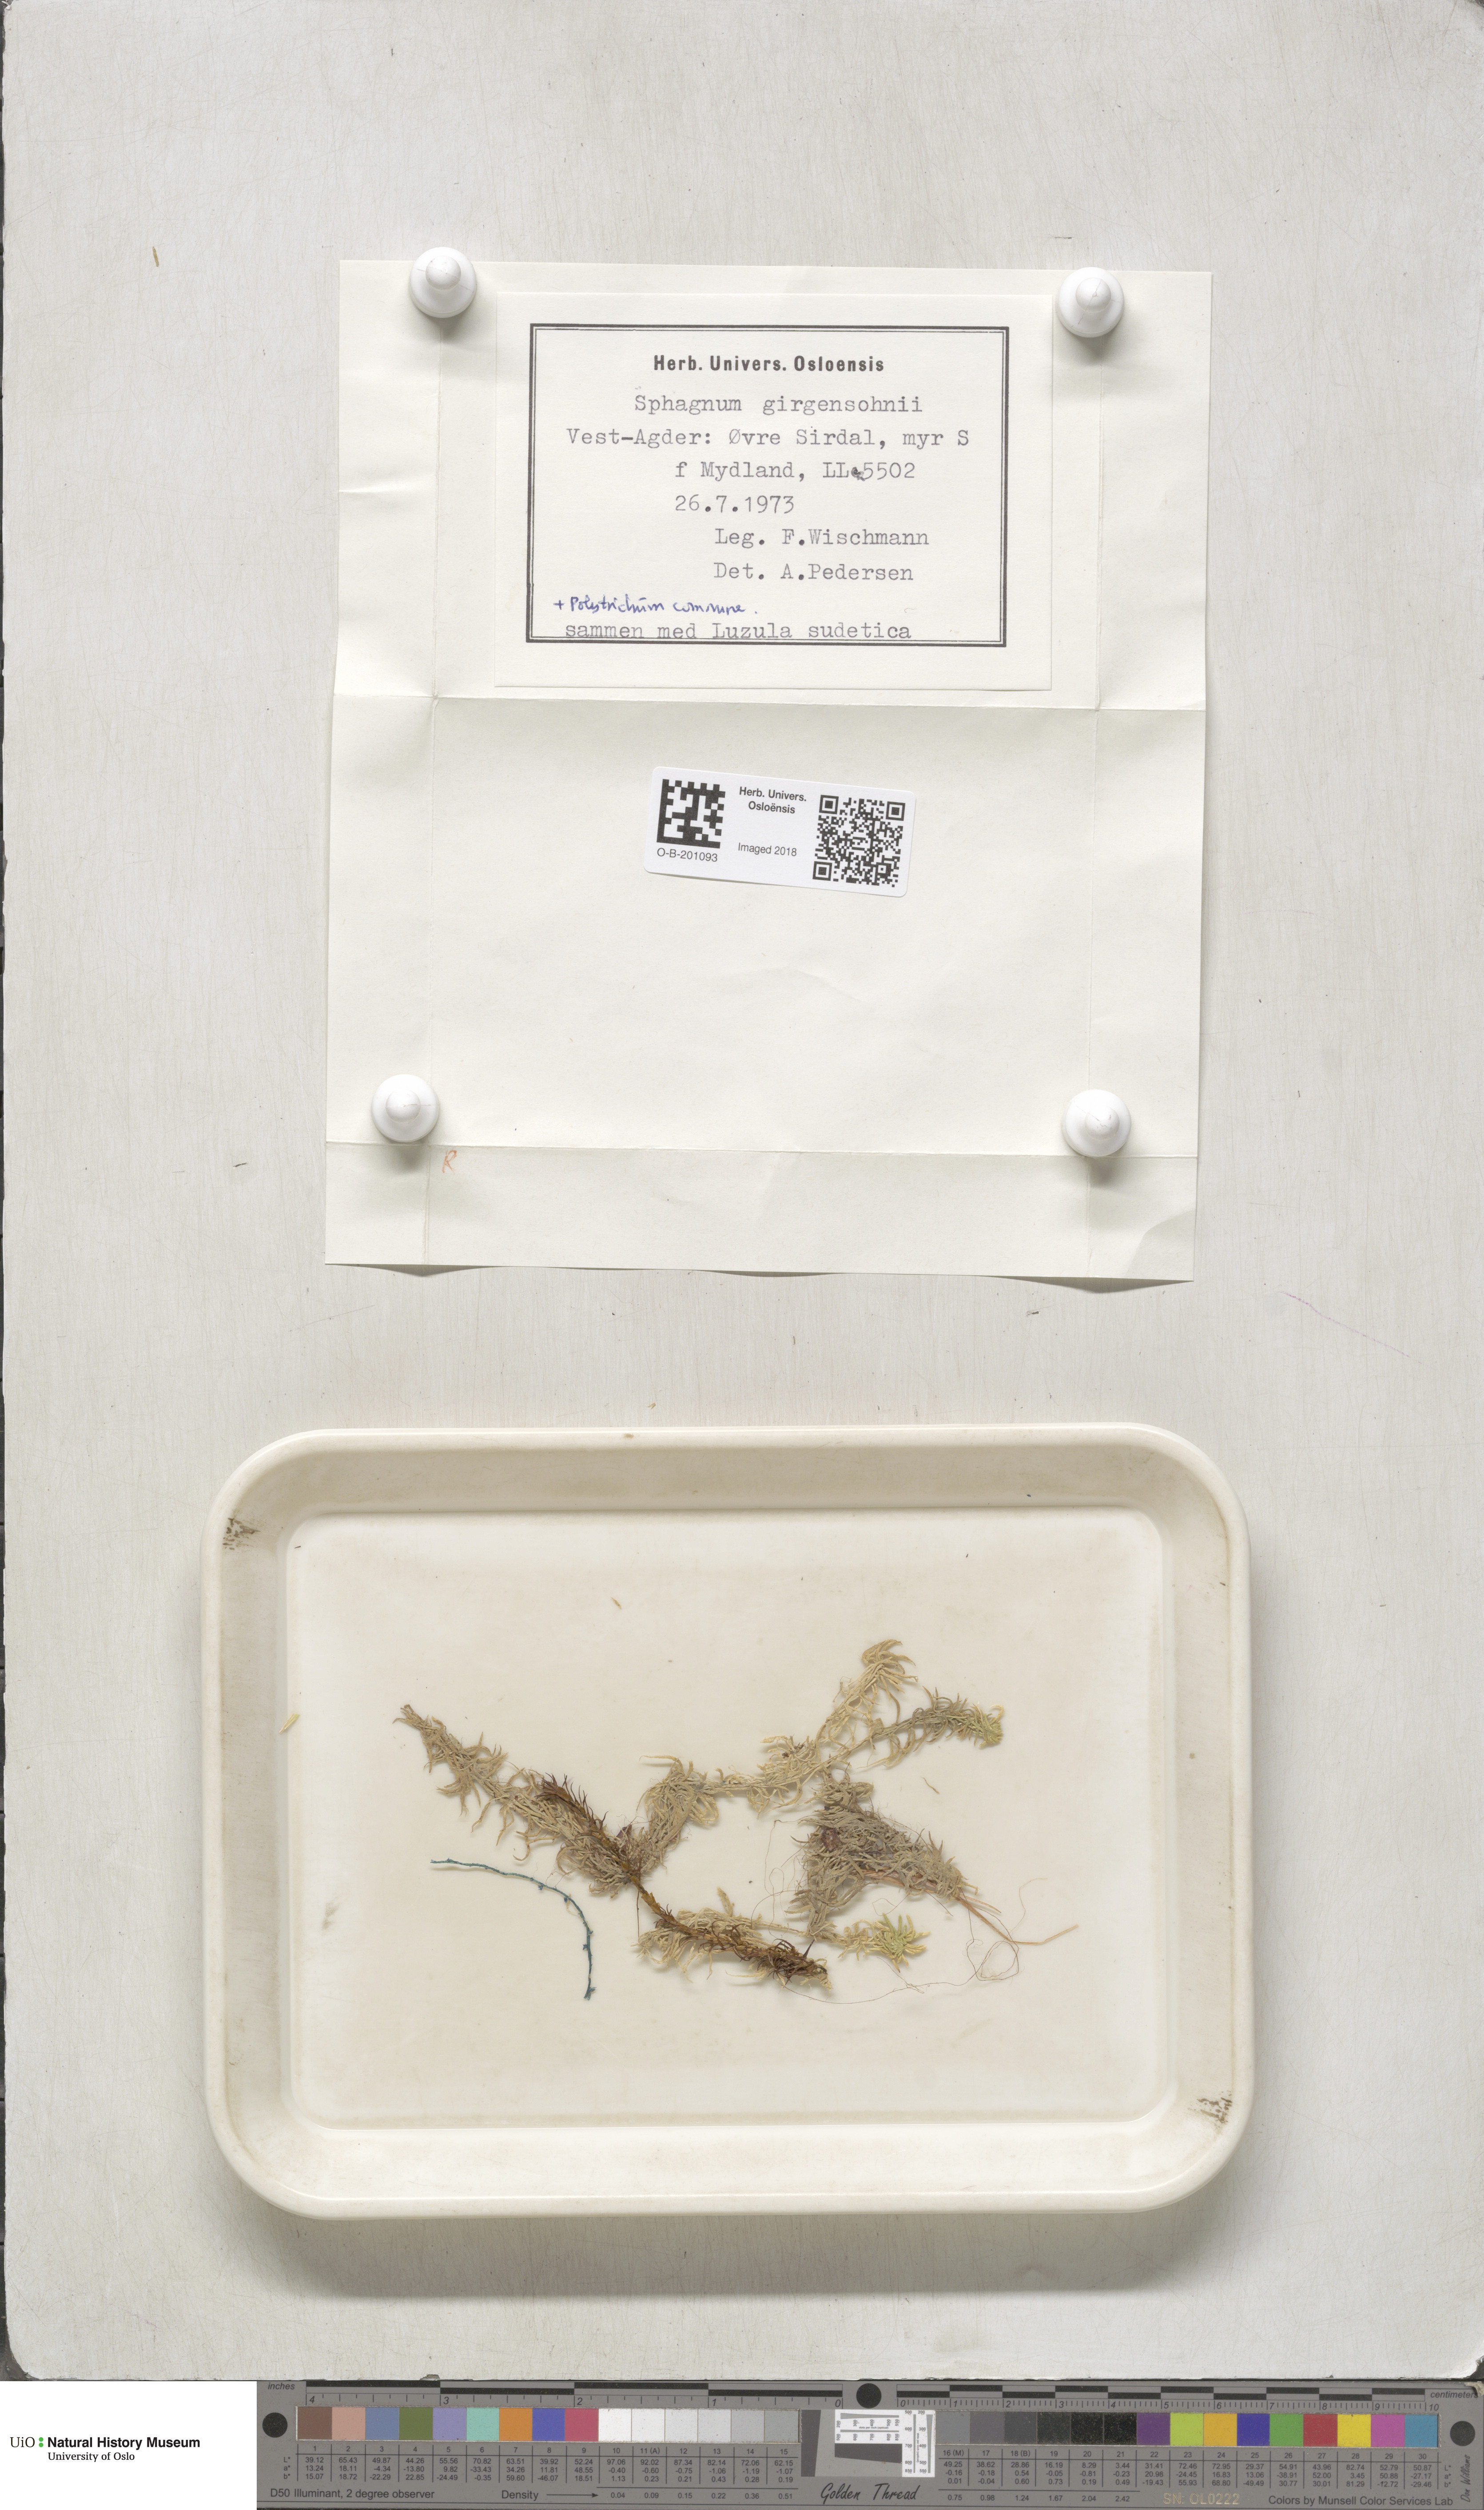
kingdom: Plantae
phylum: Bryophyta
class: Sphagnopsida
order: Sphagnales
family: Sphagnaceae
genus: Sphagnum
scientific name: Sphagnum girgensohnii
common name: Girgensohn's peat moss
